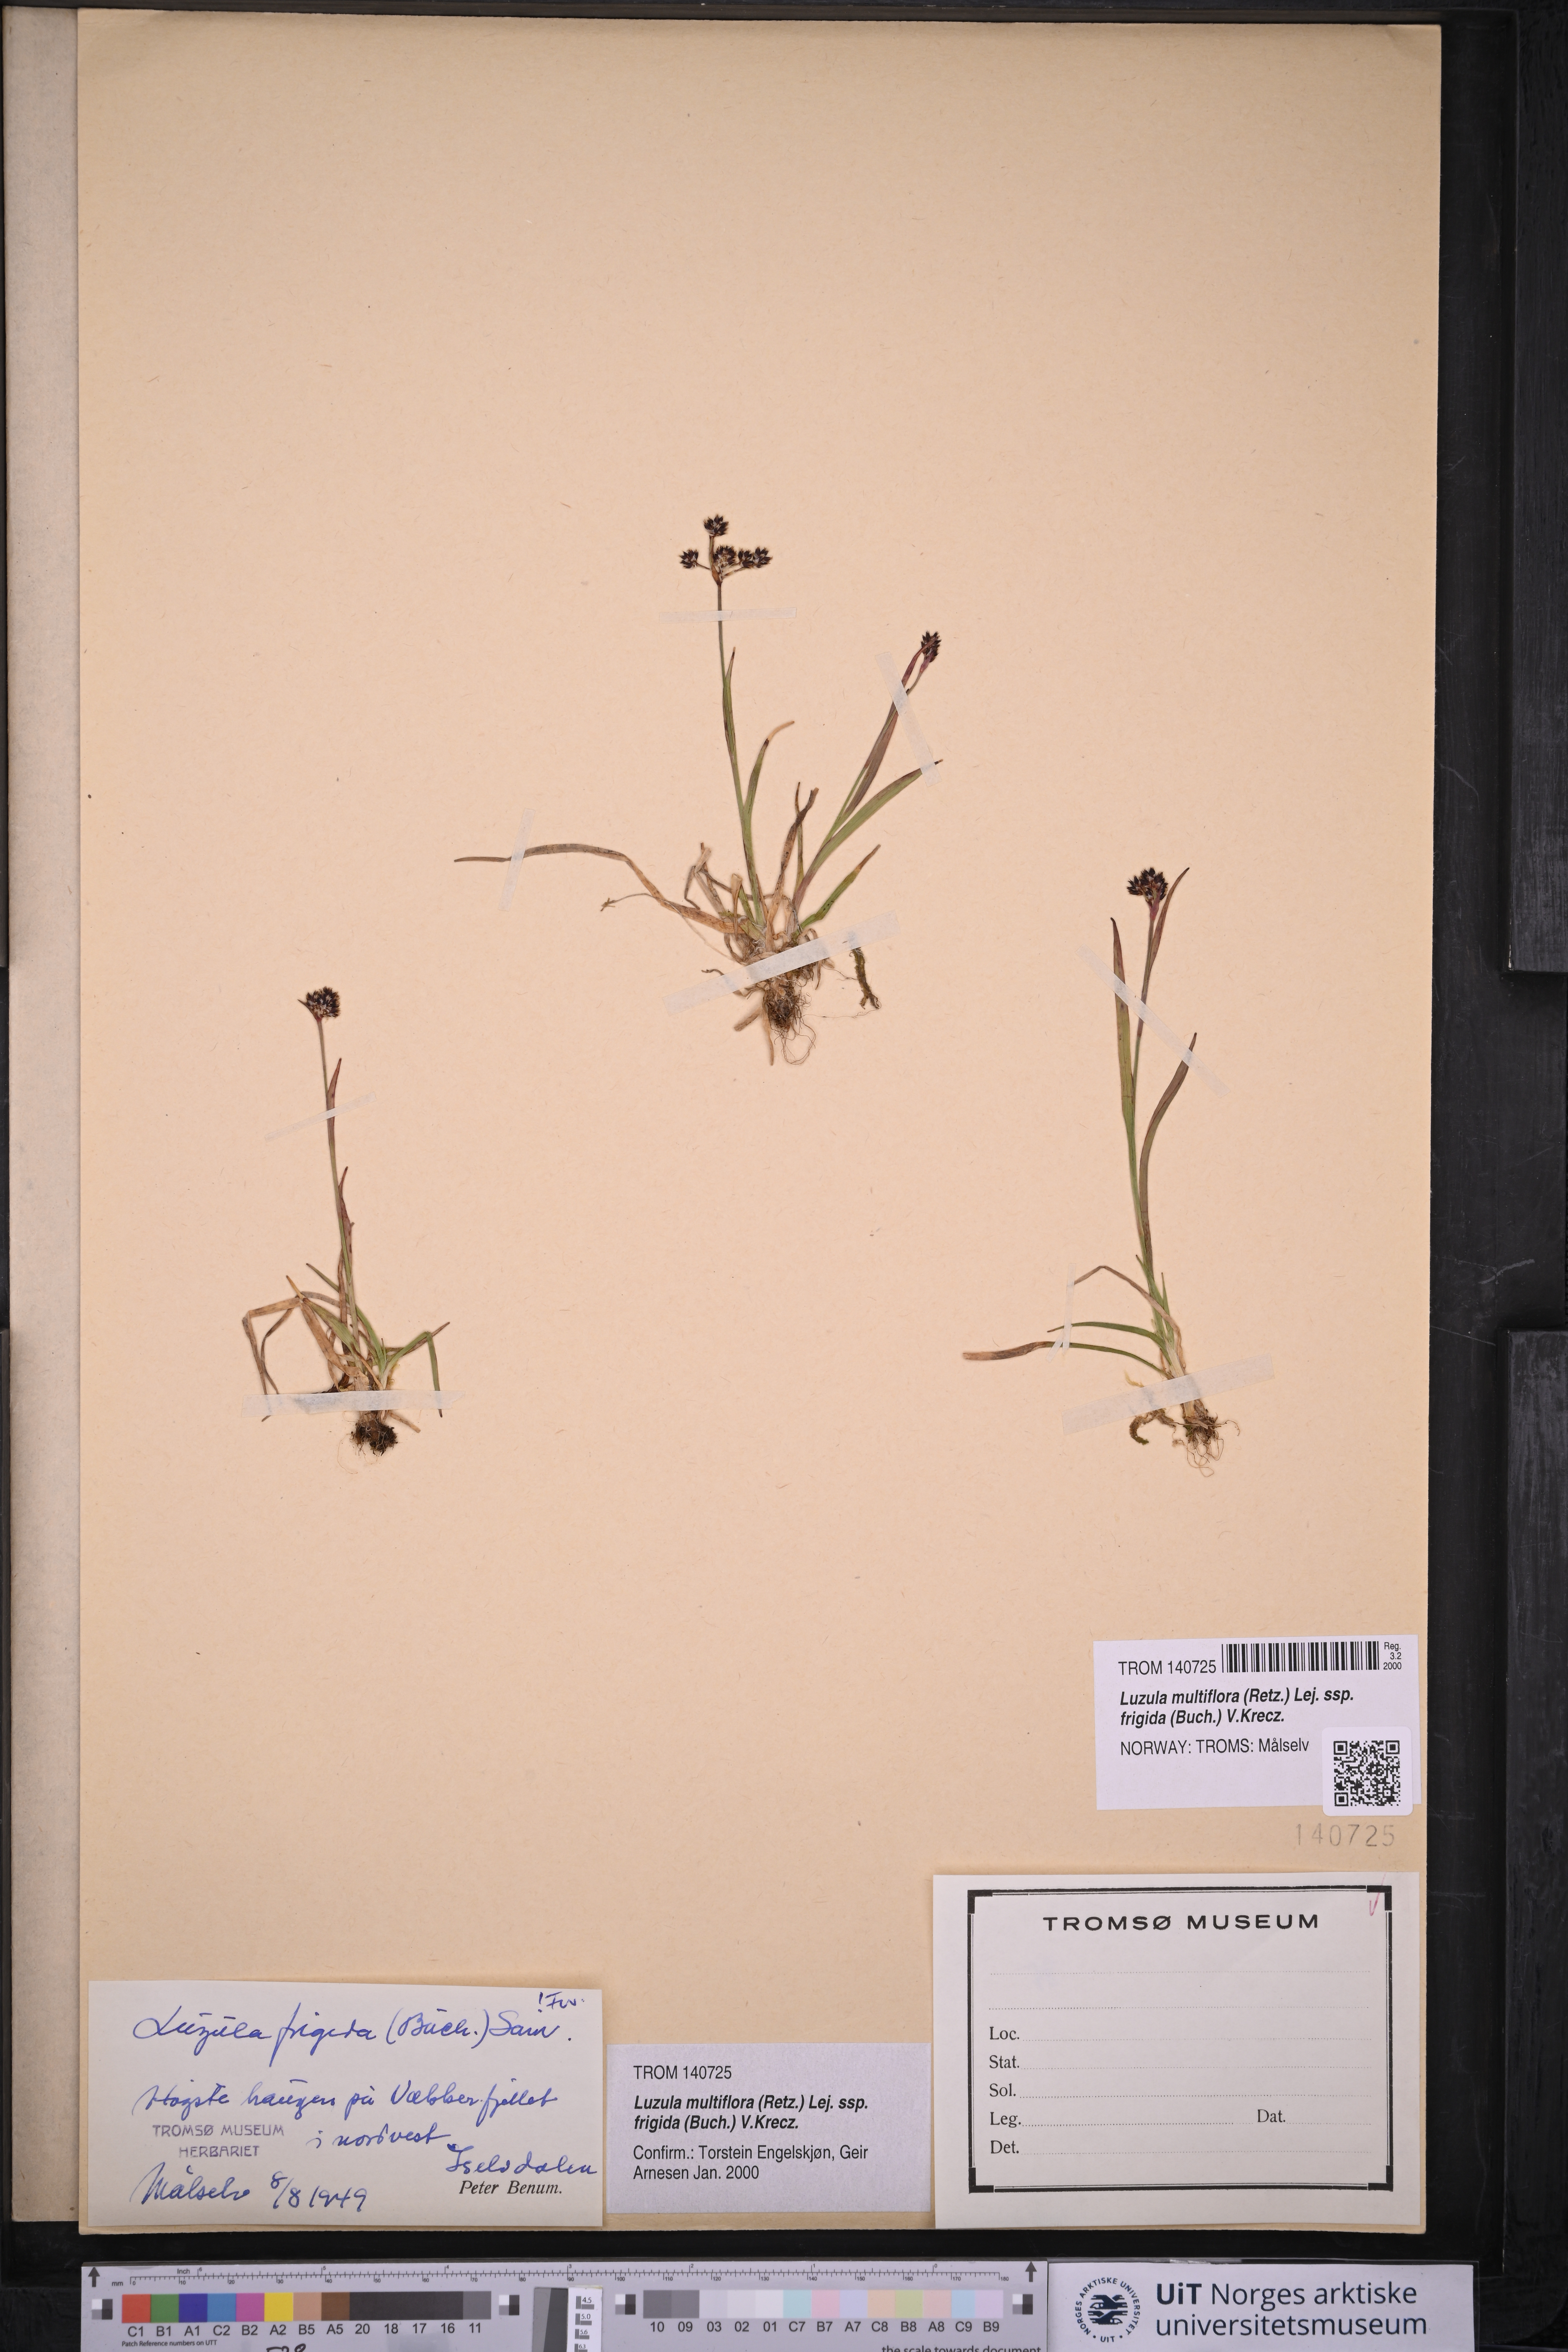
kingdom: Plantae
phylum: Tracheophyta
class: Liliopsida
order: Poales
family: Juncaceae
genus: Luzula
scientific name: Luzula multiflora
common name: Heath wood-rush
